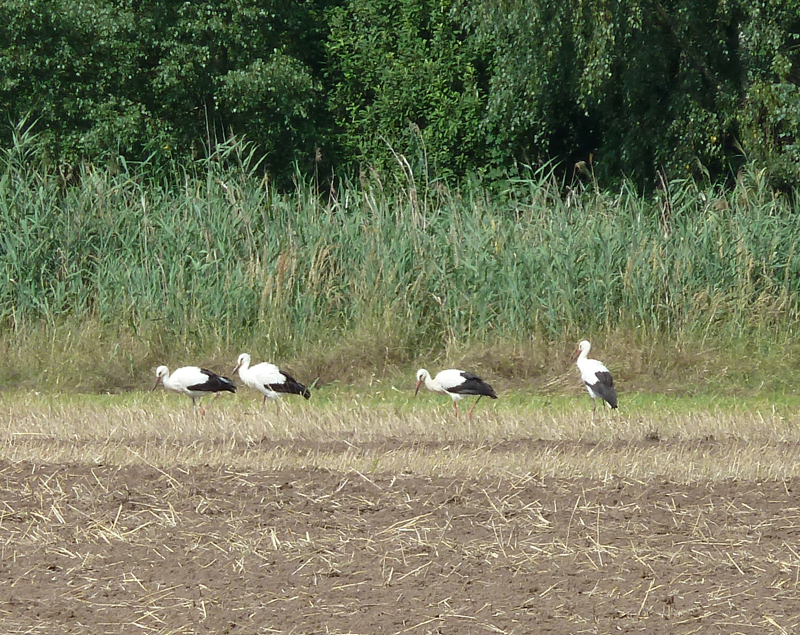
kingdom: Animalia
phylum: Chordata
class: Aves
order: Ciconiiformes
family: Ciconiidae
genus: Ciconia
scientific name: Ciconia ciconia
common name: White stork
